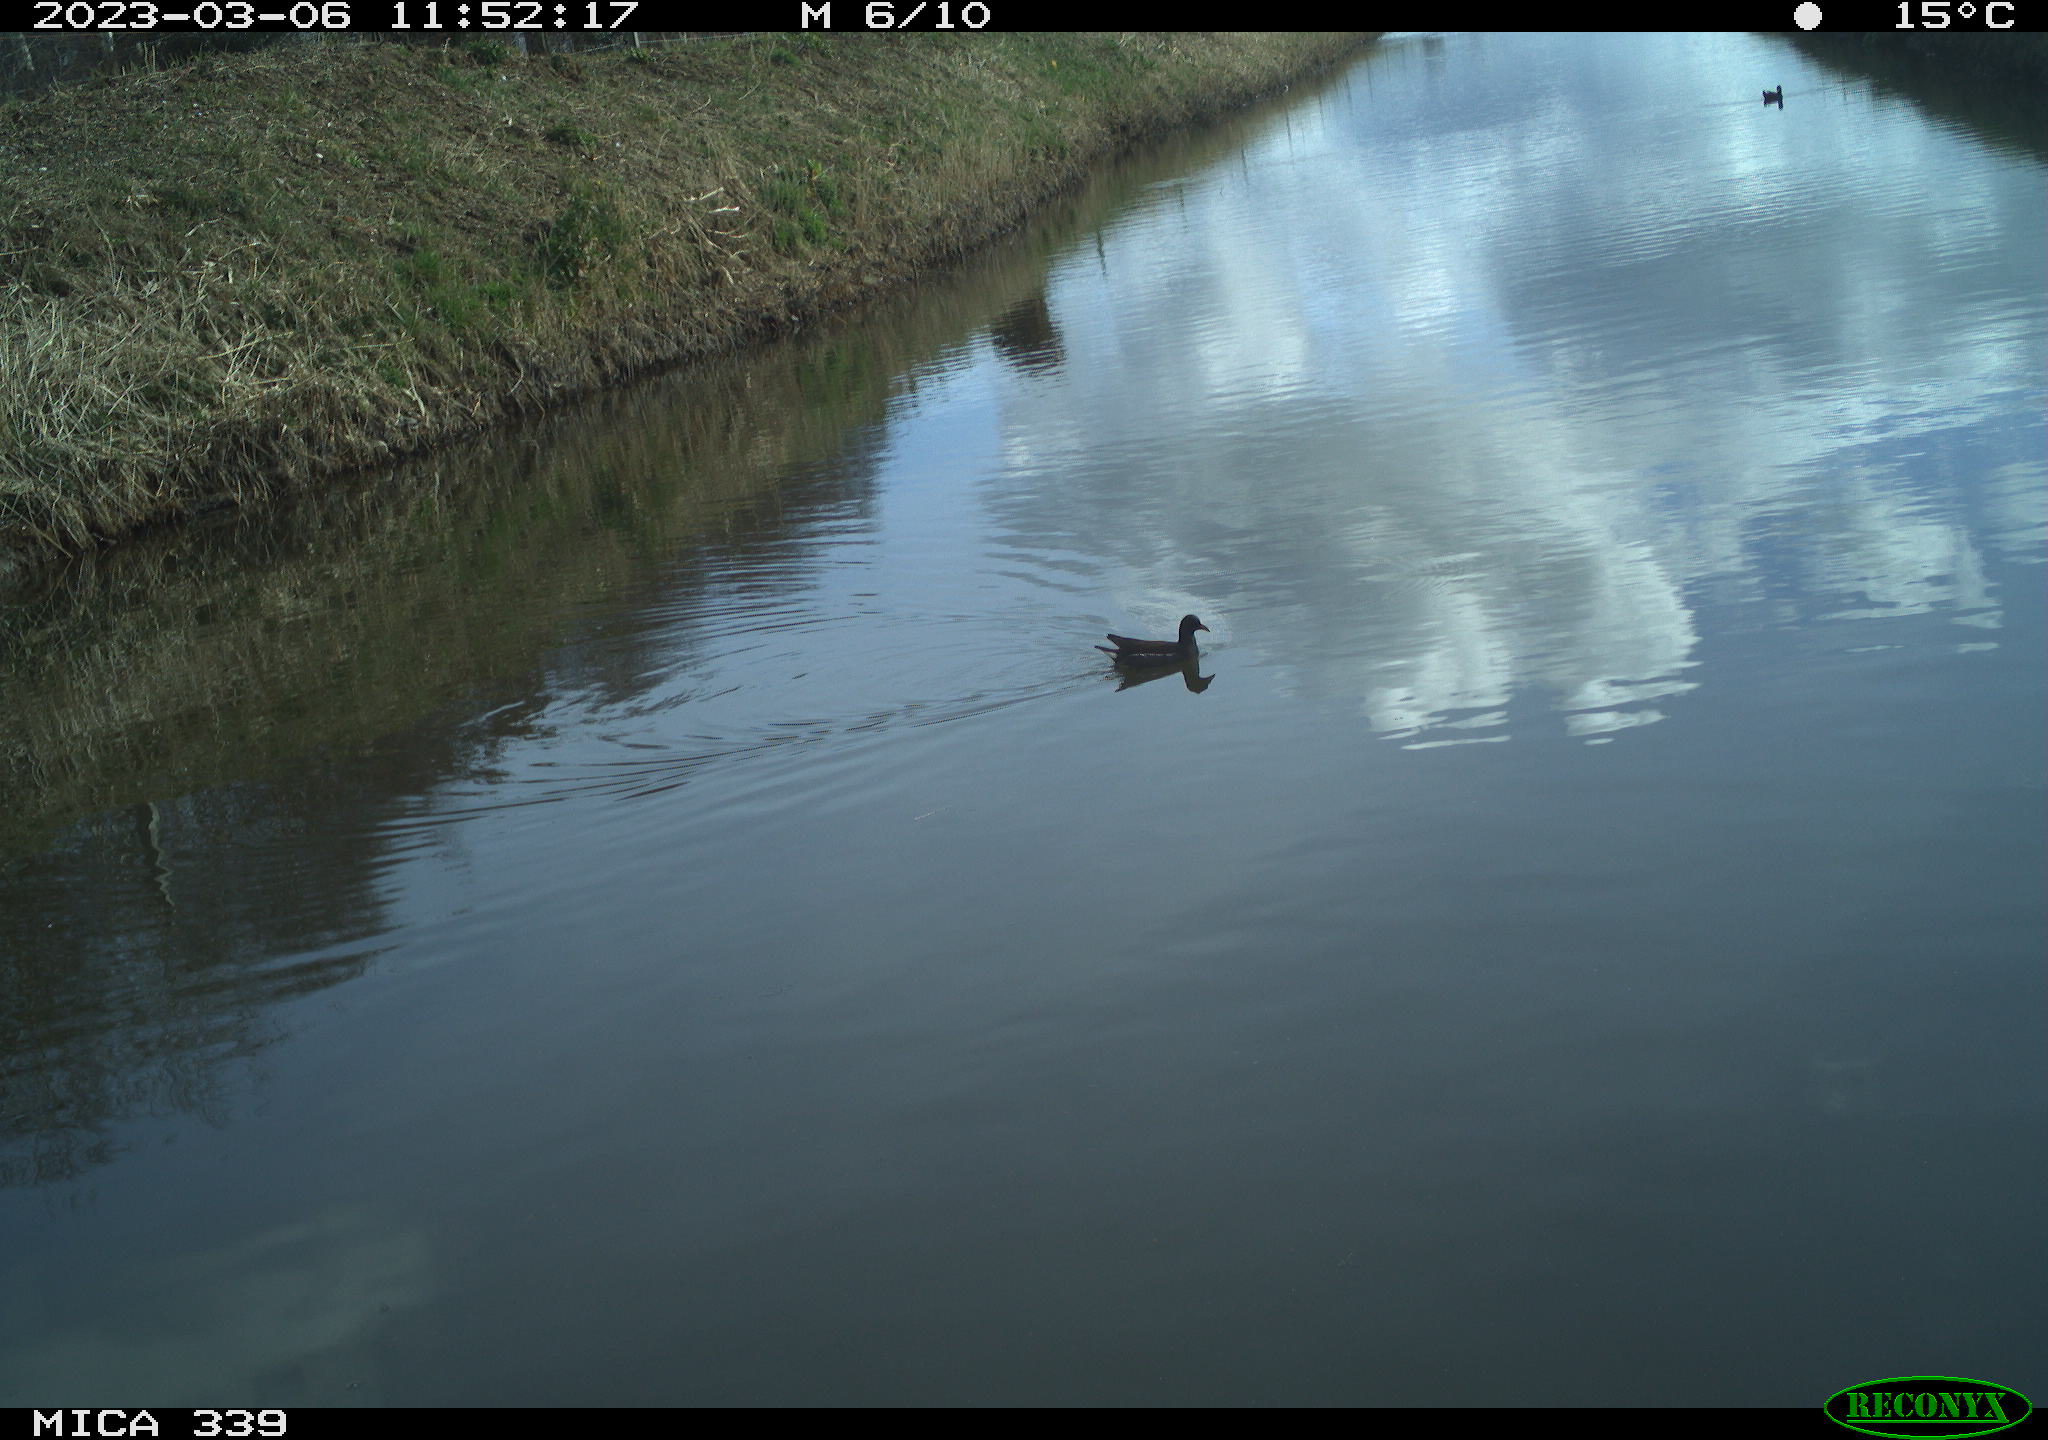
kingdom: Animalia
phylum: Chordata
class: Aves
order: Gruiformes
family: Rallidae
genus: Gallinula
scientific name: Gallinula chloropus
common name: Common moorhen
